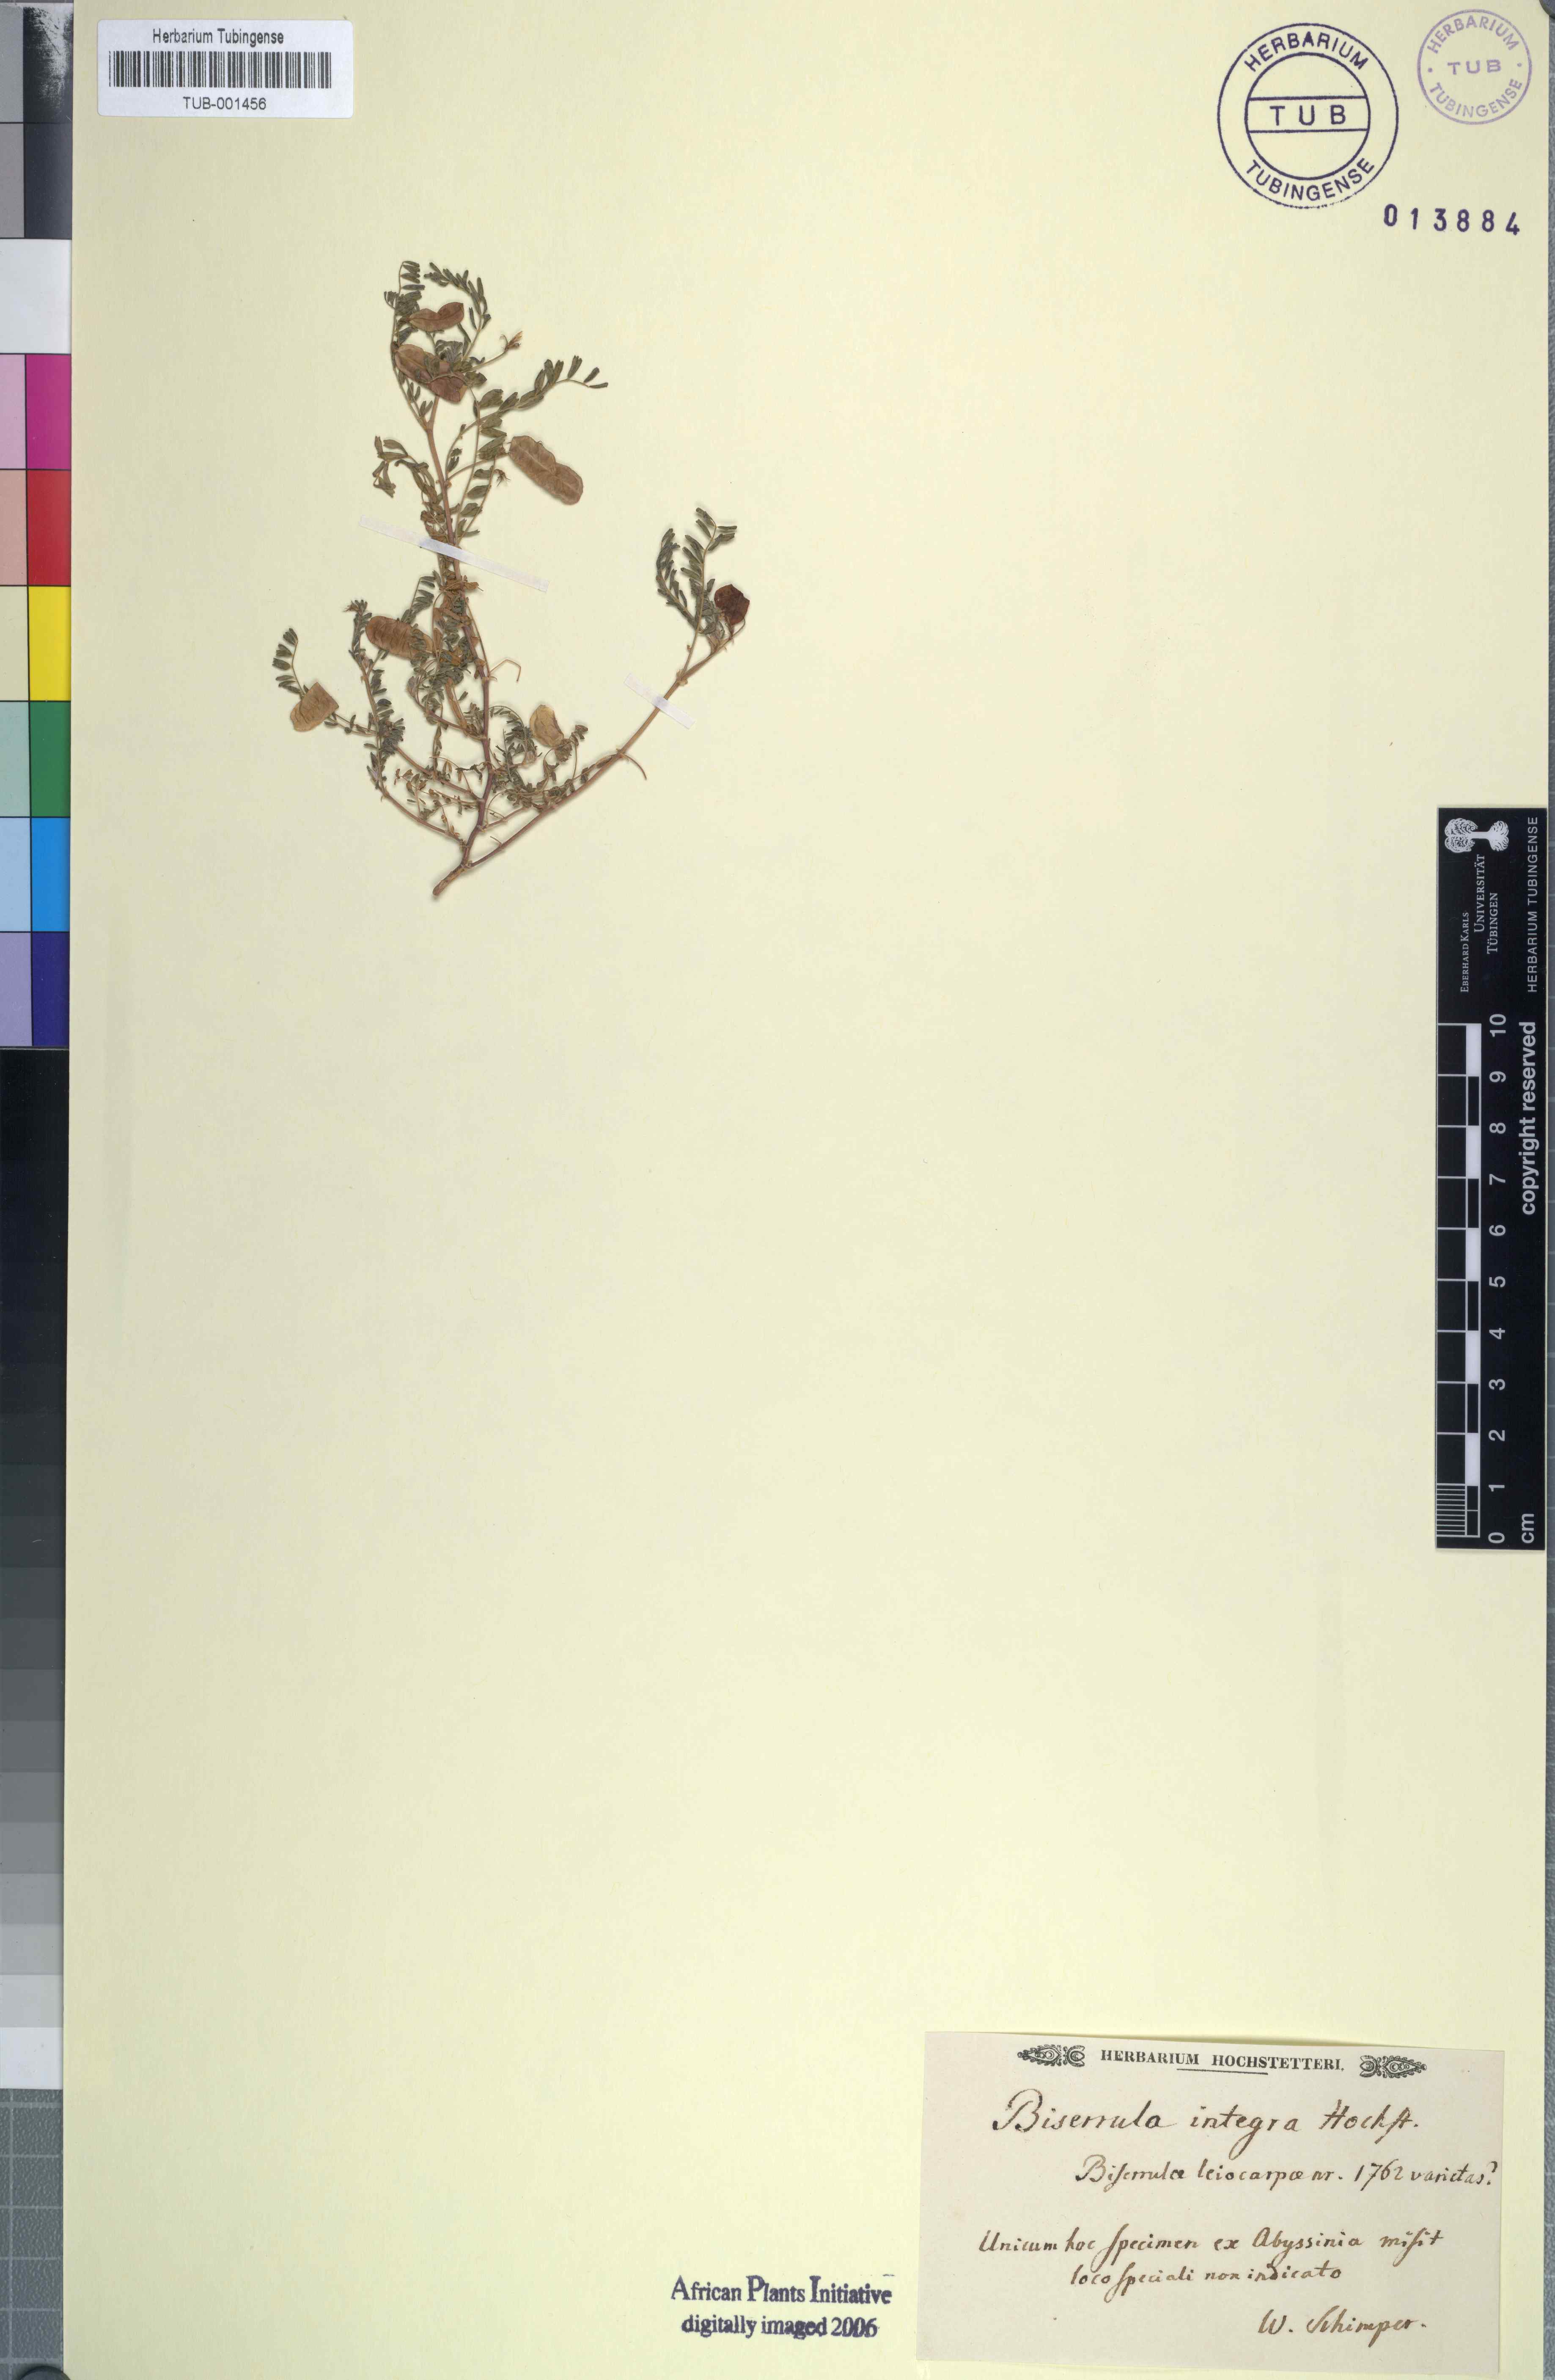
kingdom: Plantae
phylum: Tracheophyta
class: Magnoliopsida
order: Fabales
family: Fabaceae
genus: Biserrula
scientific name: Biserrula
